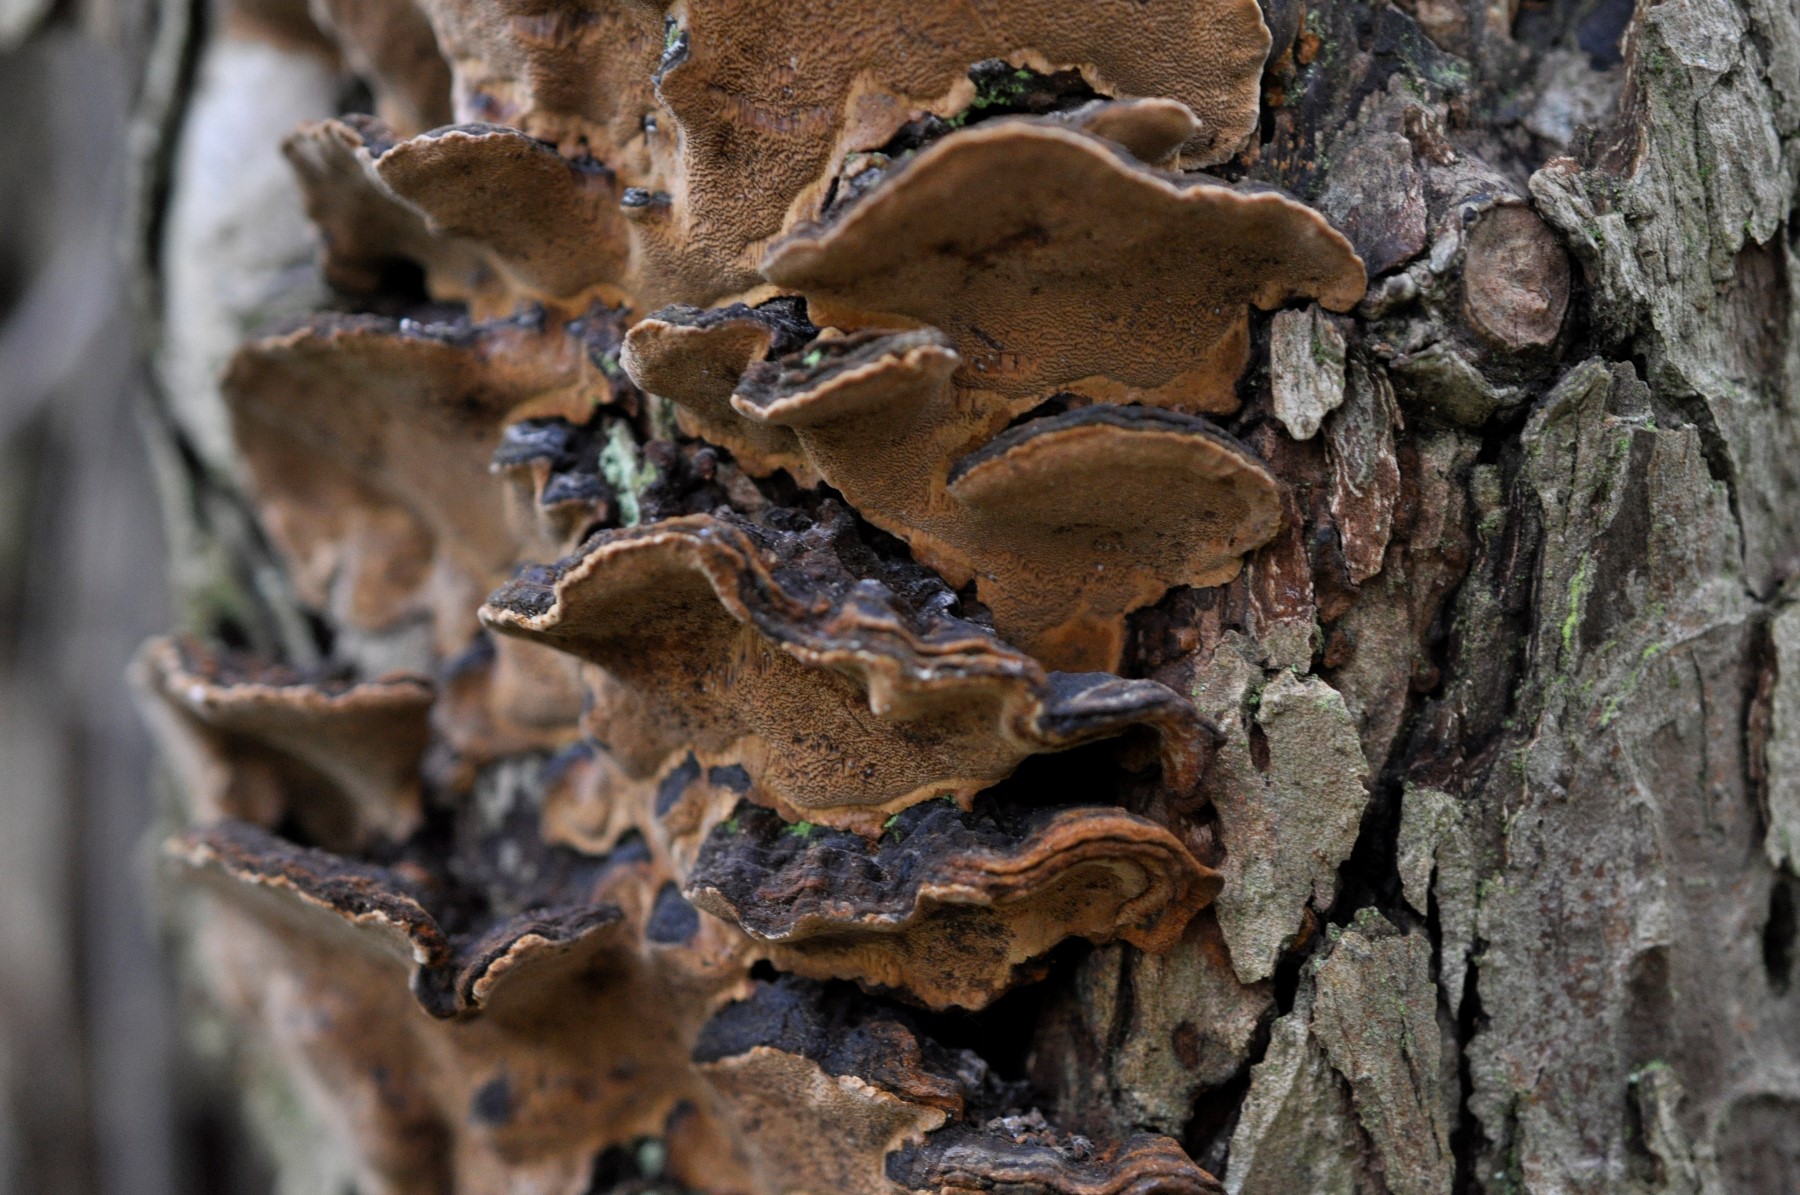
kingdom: Fungi
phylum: Basidiomycota
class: Agaricomycetes
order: Hymenochaetales
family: Hymenochaetaceae
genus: Phellinopsis
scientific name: Phellinopsis conchata
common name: pile-ildporesvamp
